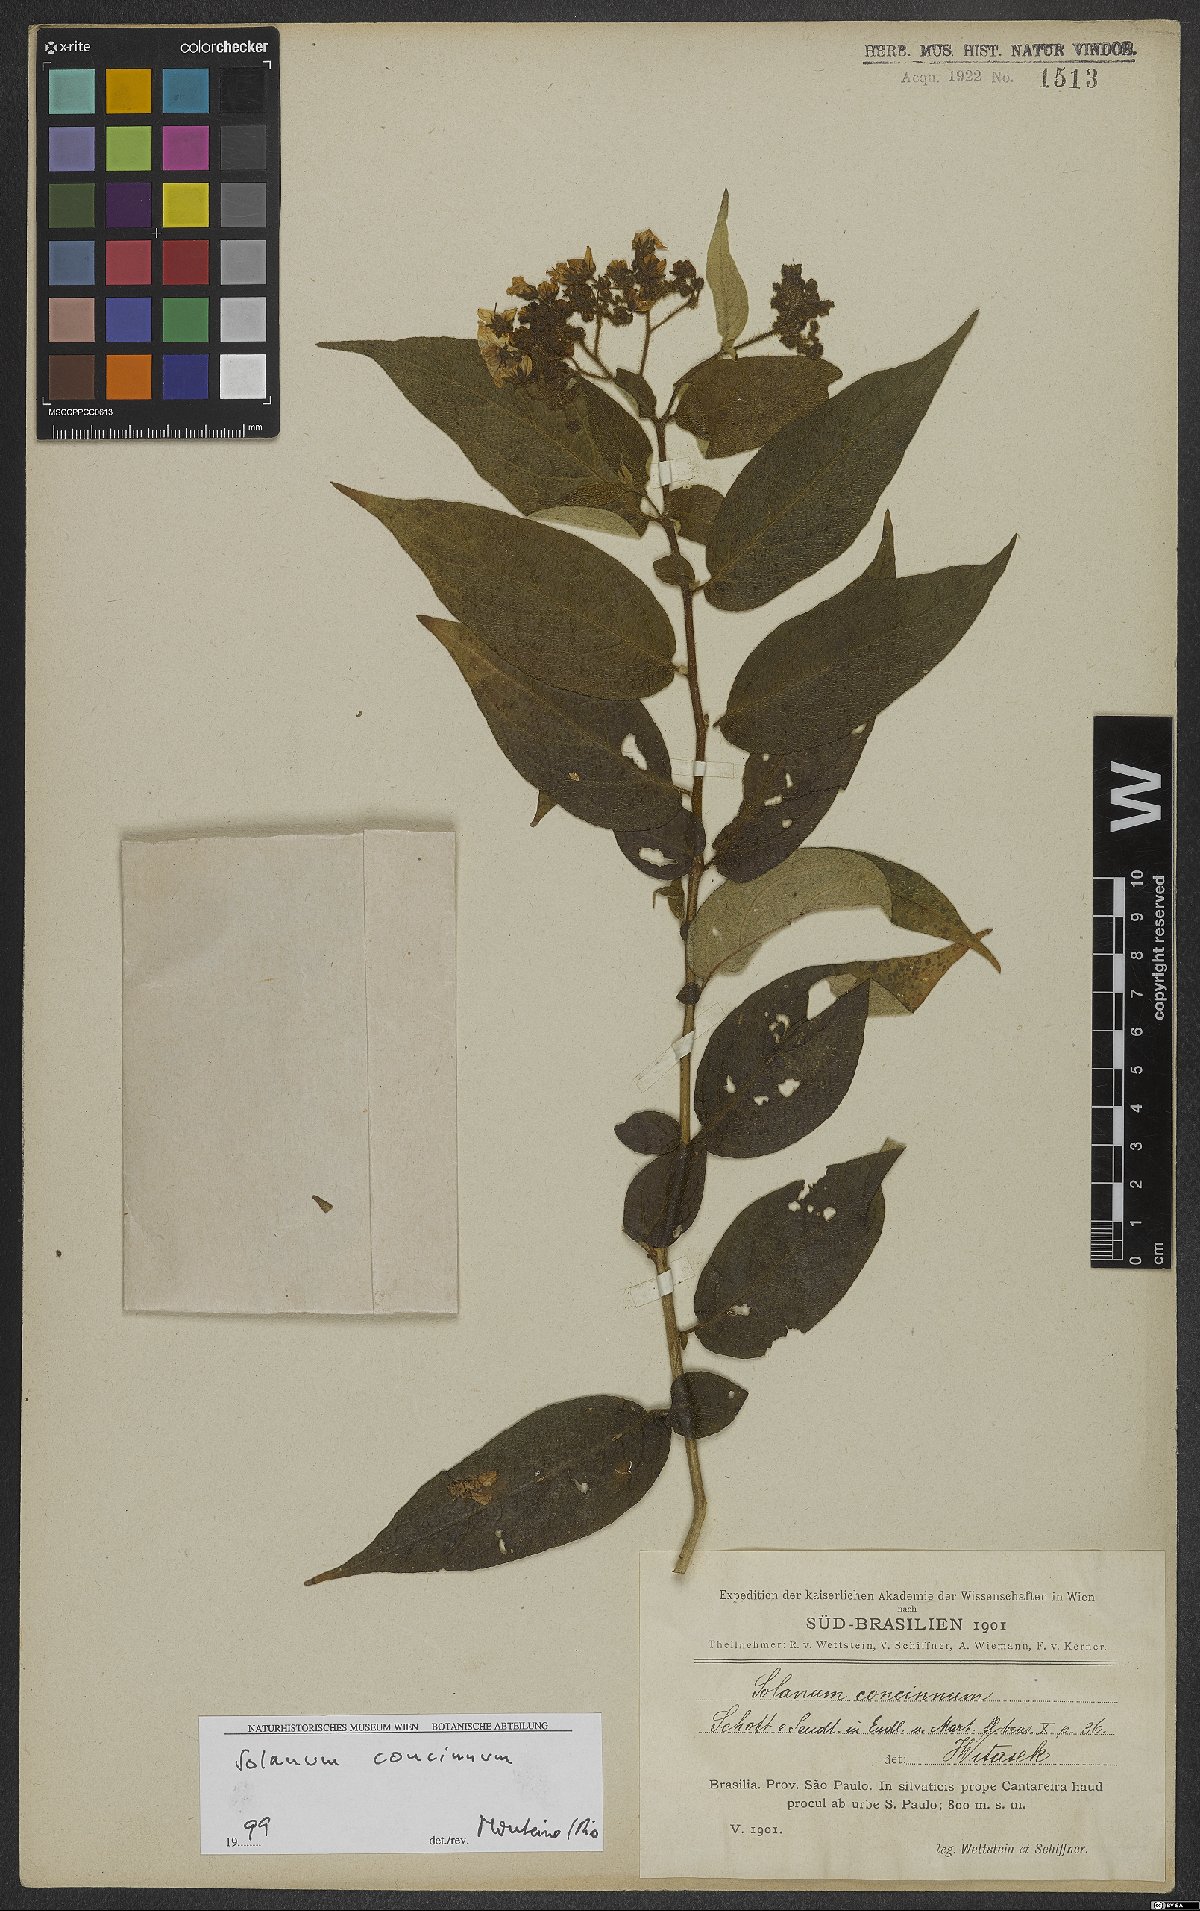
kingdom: Plantae
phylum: Tracheophyta
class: Magnoliopsida
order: Solanales
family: Solanaceae
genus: Solanum
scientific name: Solanum concinnum
